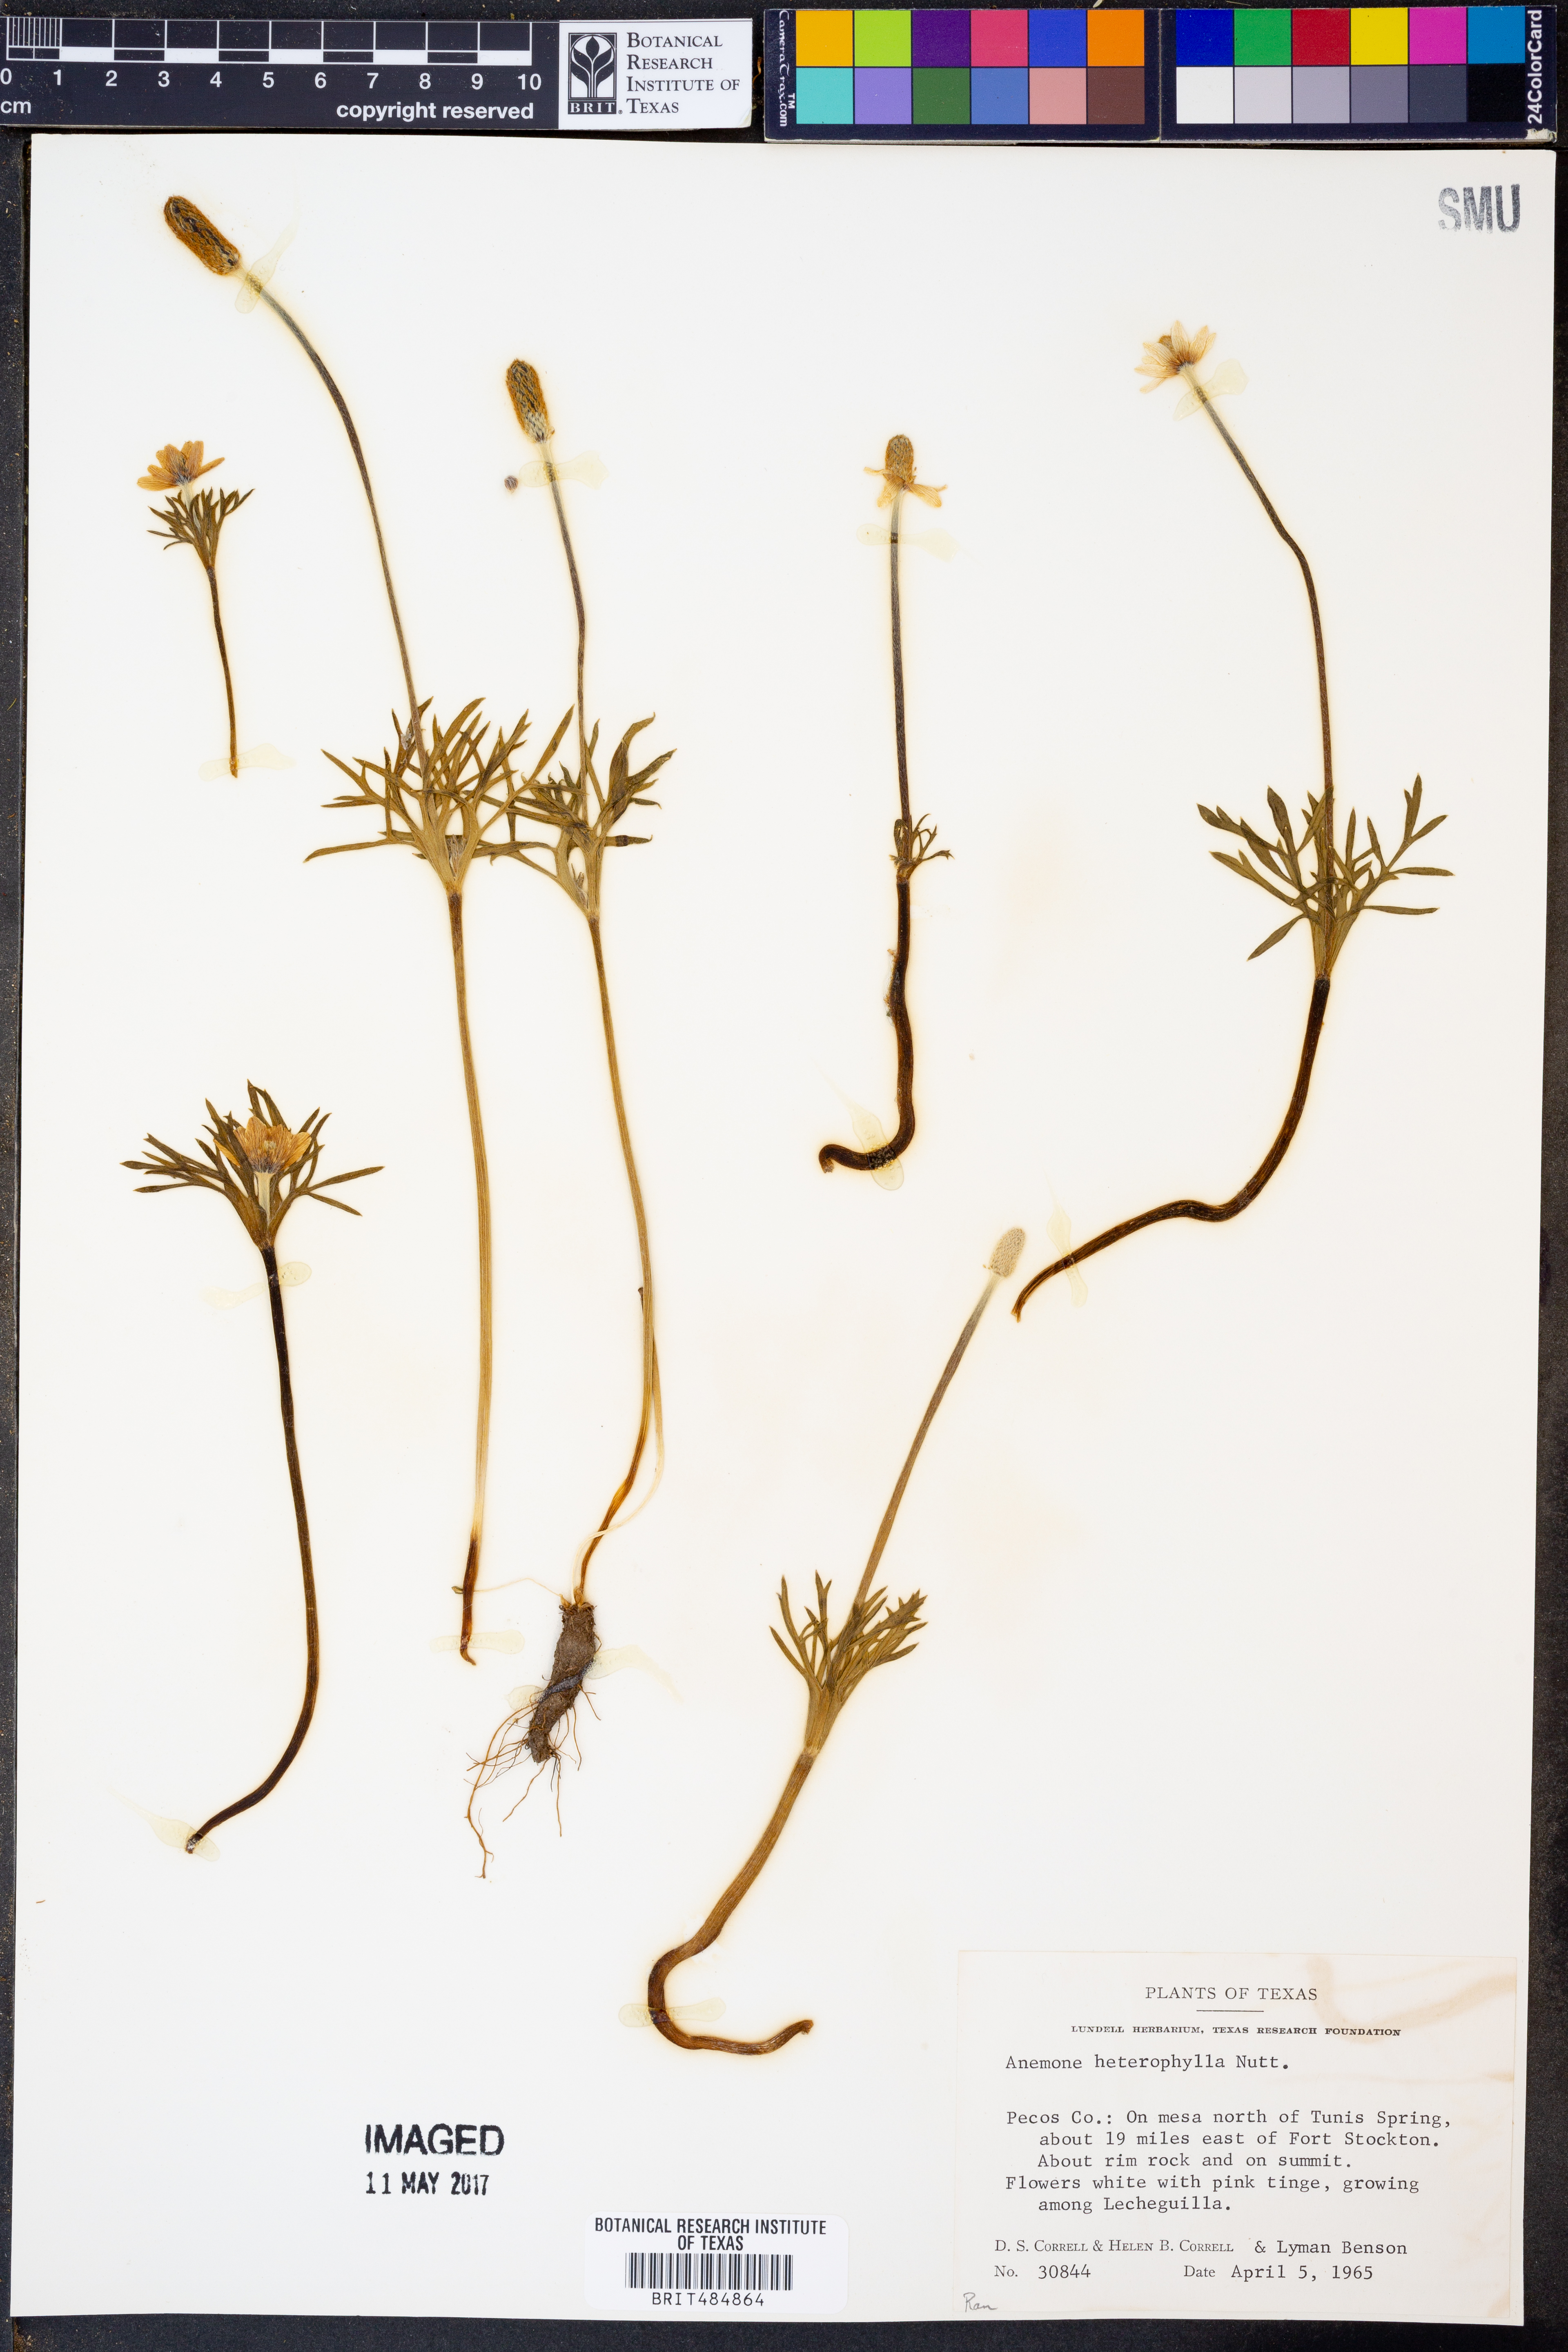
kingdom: Plantae
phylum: Tracheophyta
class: Magnoliopsida
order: Ranunculales
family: Ranunculaceae
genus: Anemone
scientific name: Anemone heterophylla
